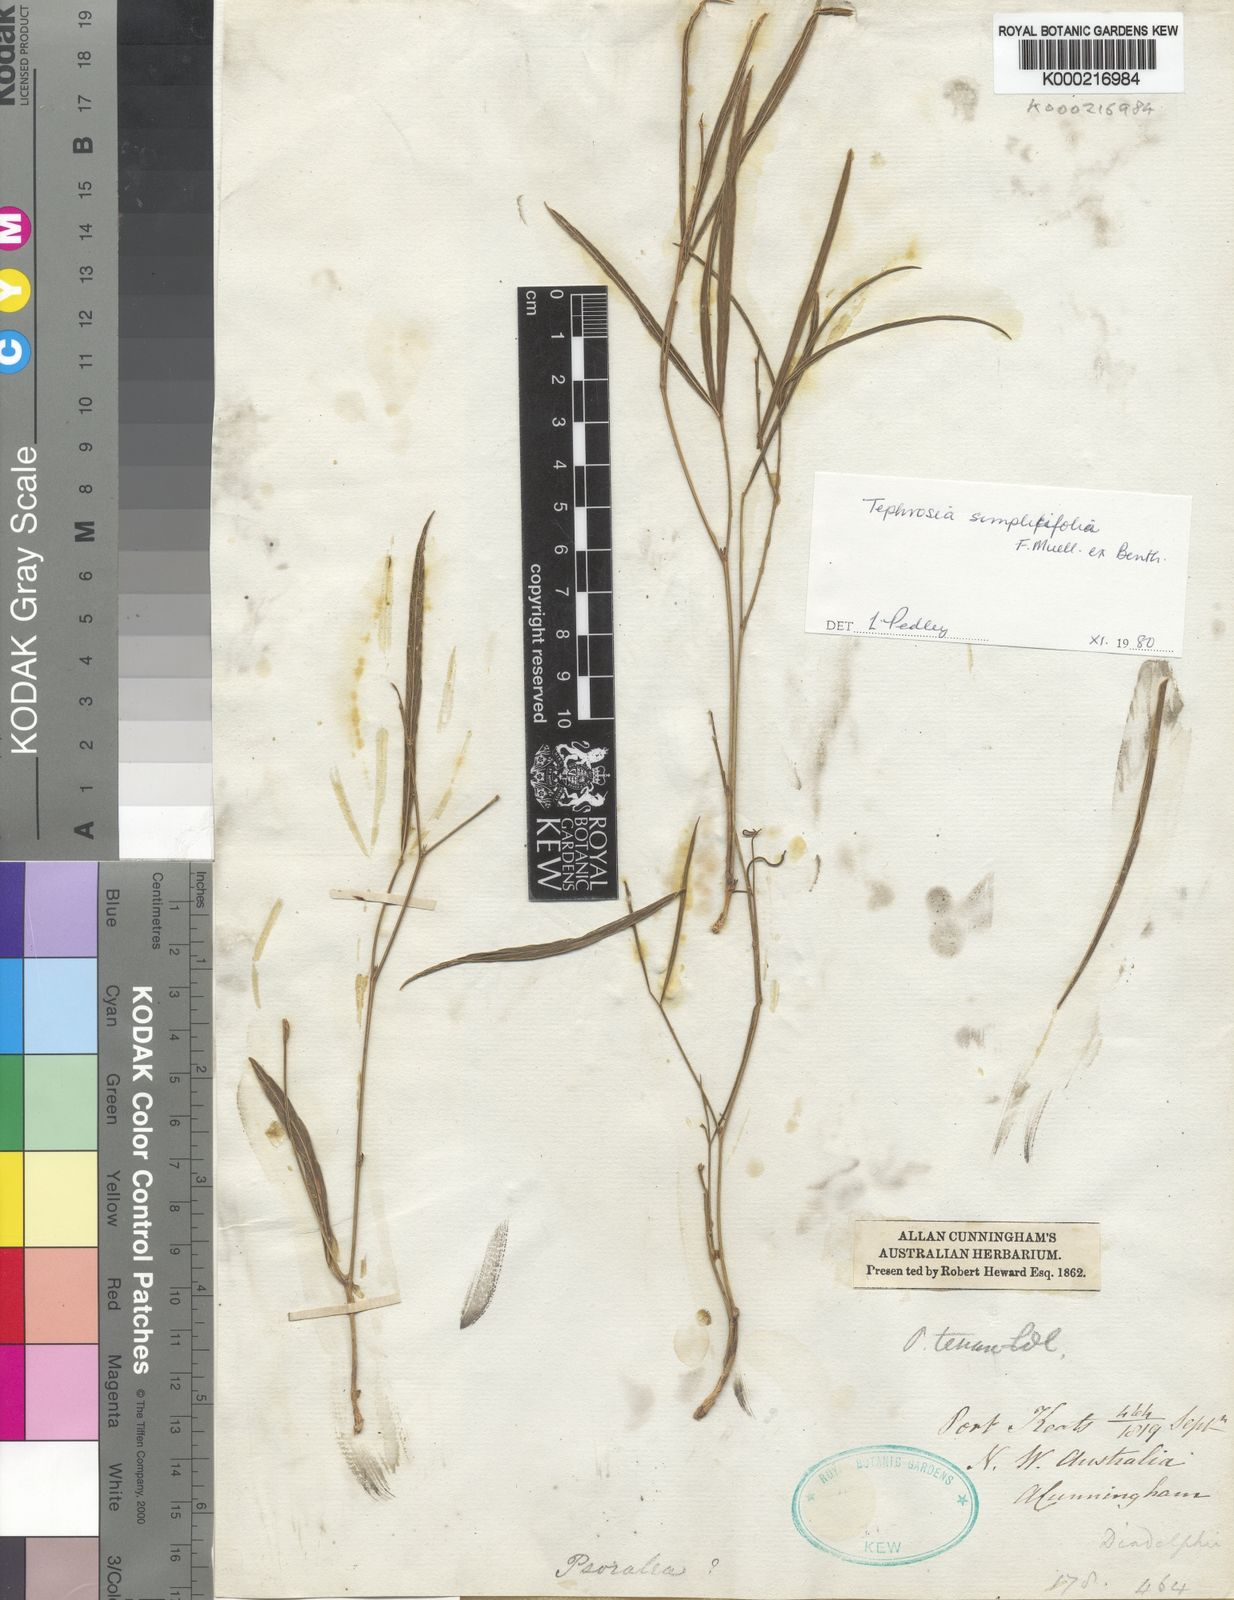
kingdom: Plantae
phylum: Tracheophyta
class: Magnoliopsida
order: Fabales
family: Fabaceae
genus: Tephrosia
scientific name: Tephrosia simplicifolia
